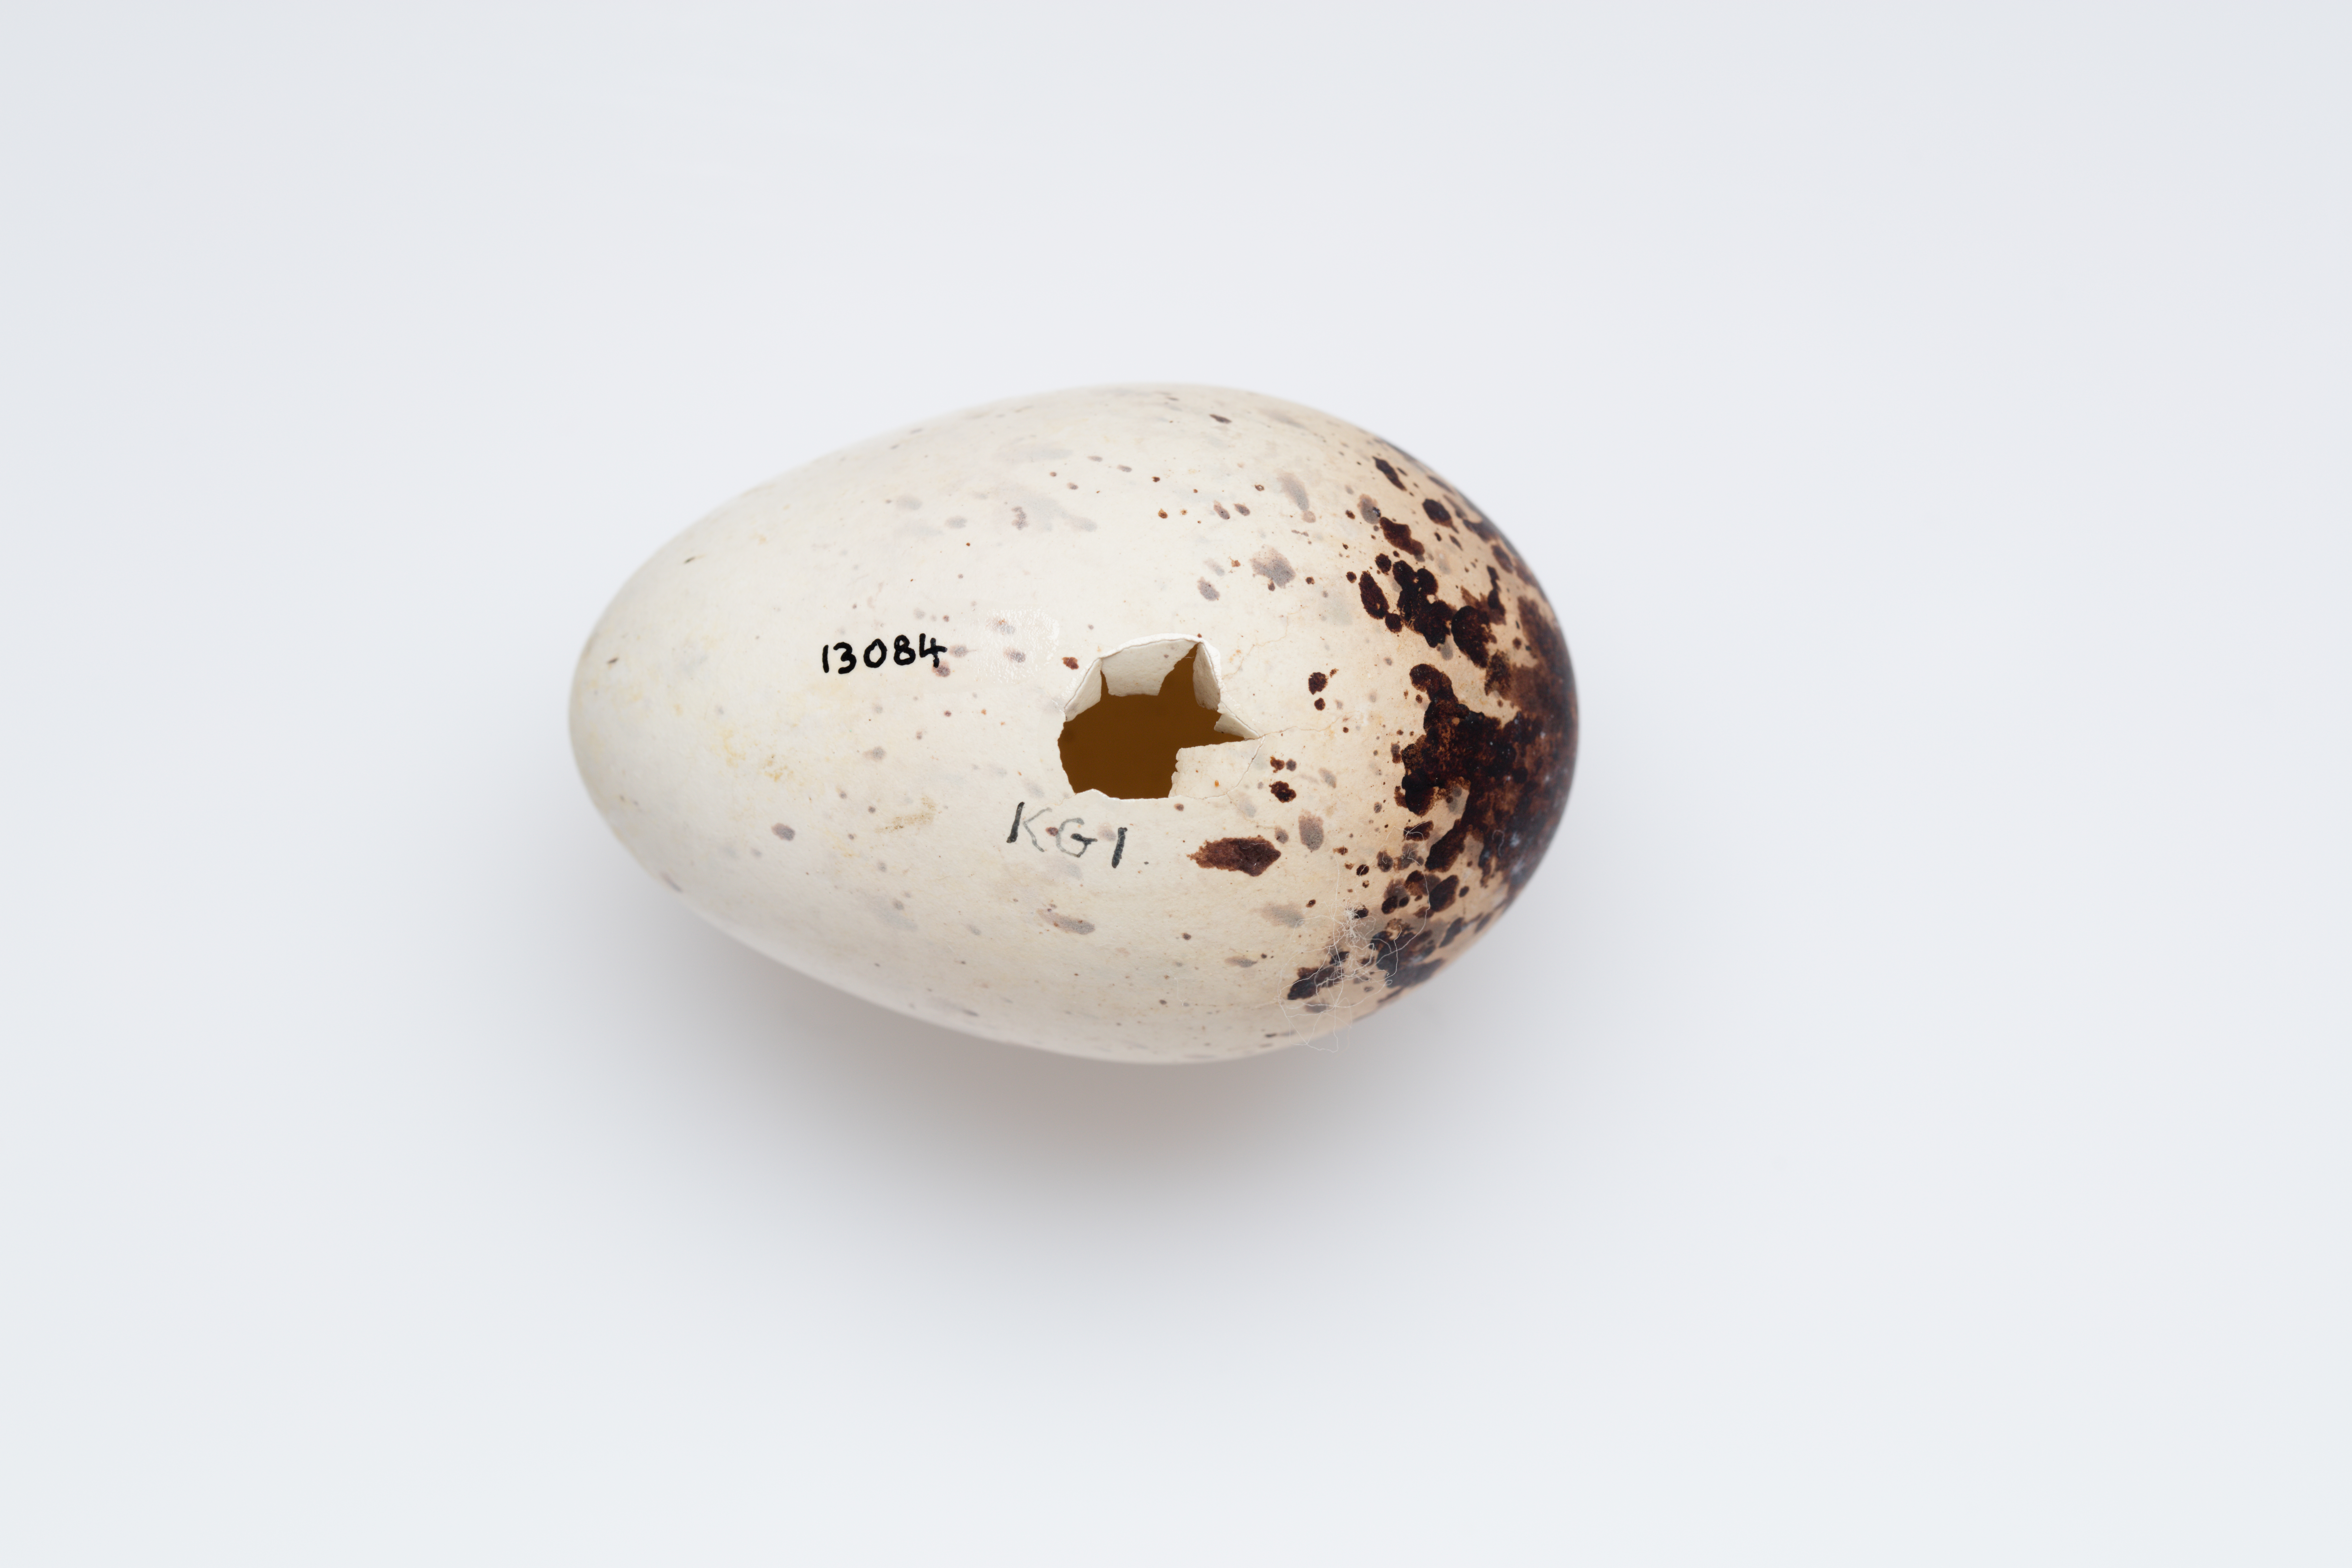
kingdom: Animalia
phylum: Chordata
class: Aves
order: Charadriiformes
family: Laridae
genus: Onychoprion
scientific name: Onychoprion fuscatus
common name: Sooty tern
